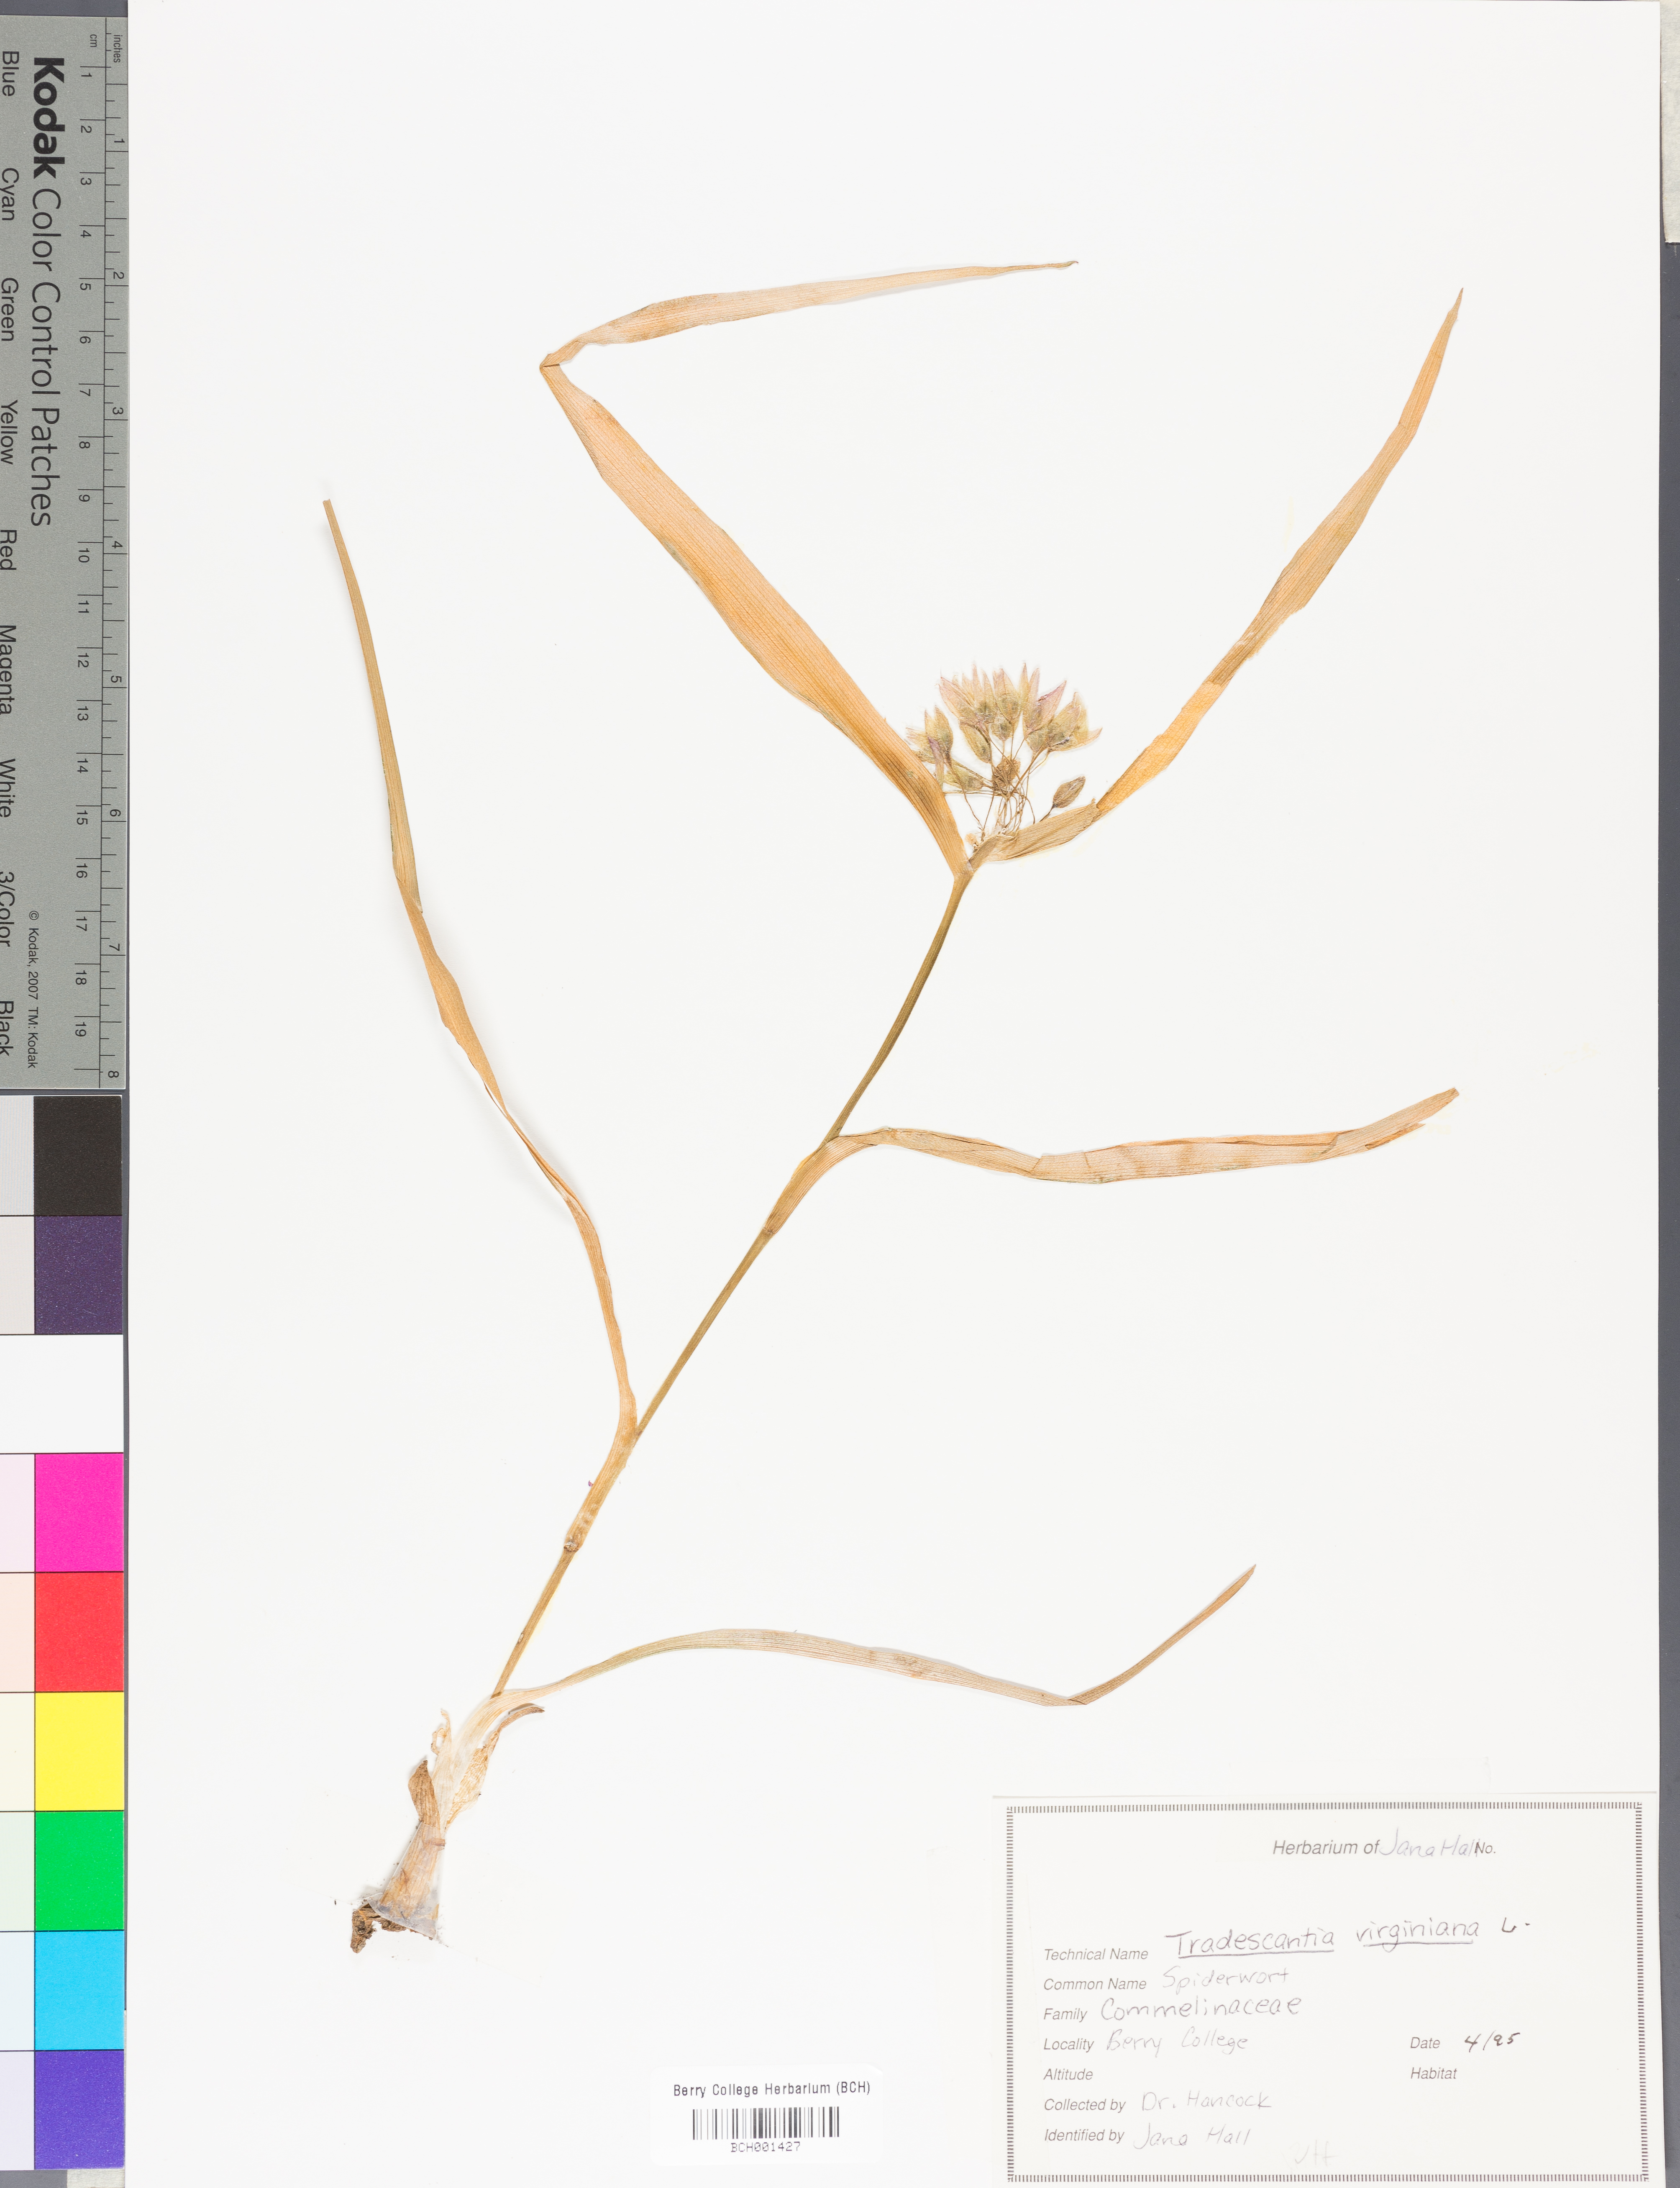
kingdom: Plantae
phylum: Tracheophyta
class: Liliopsida
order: Commelinales
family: Commelinaceae
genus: Tradescantia
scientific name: Tradescantia virginiana
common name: Spiderwort
